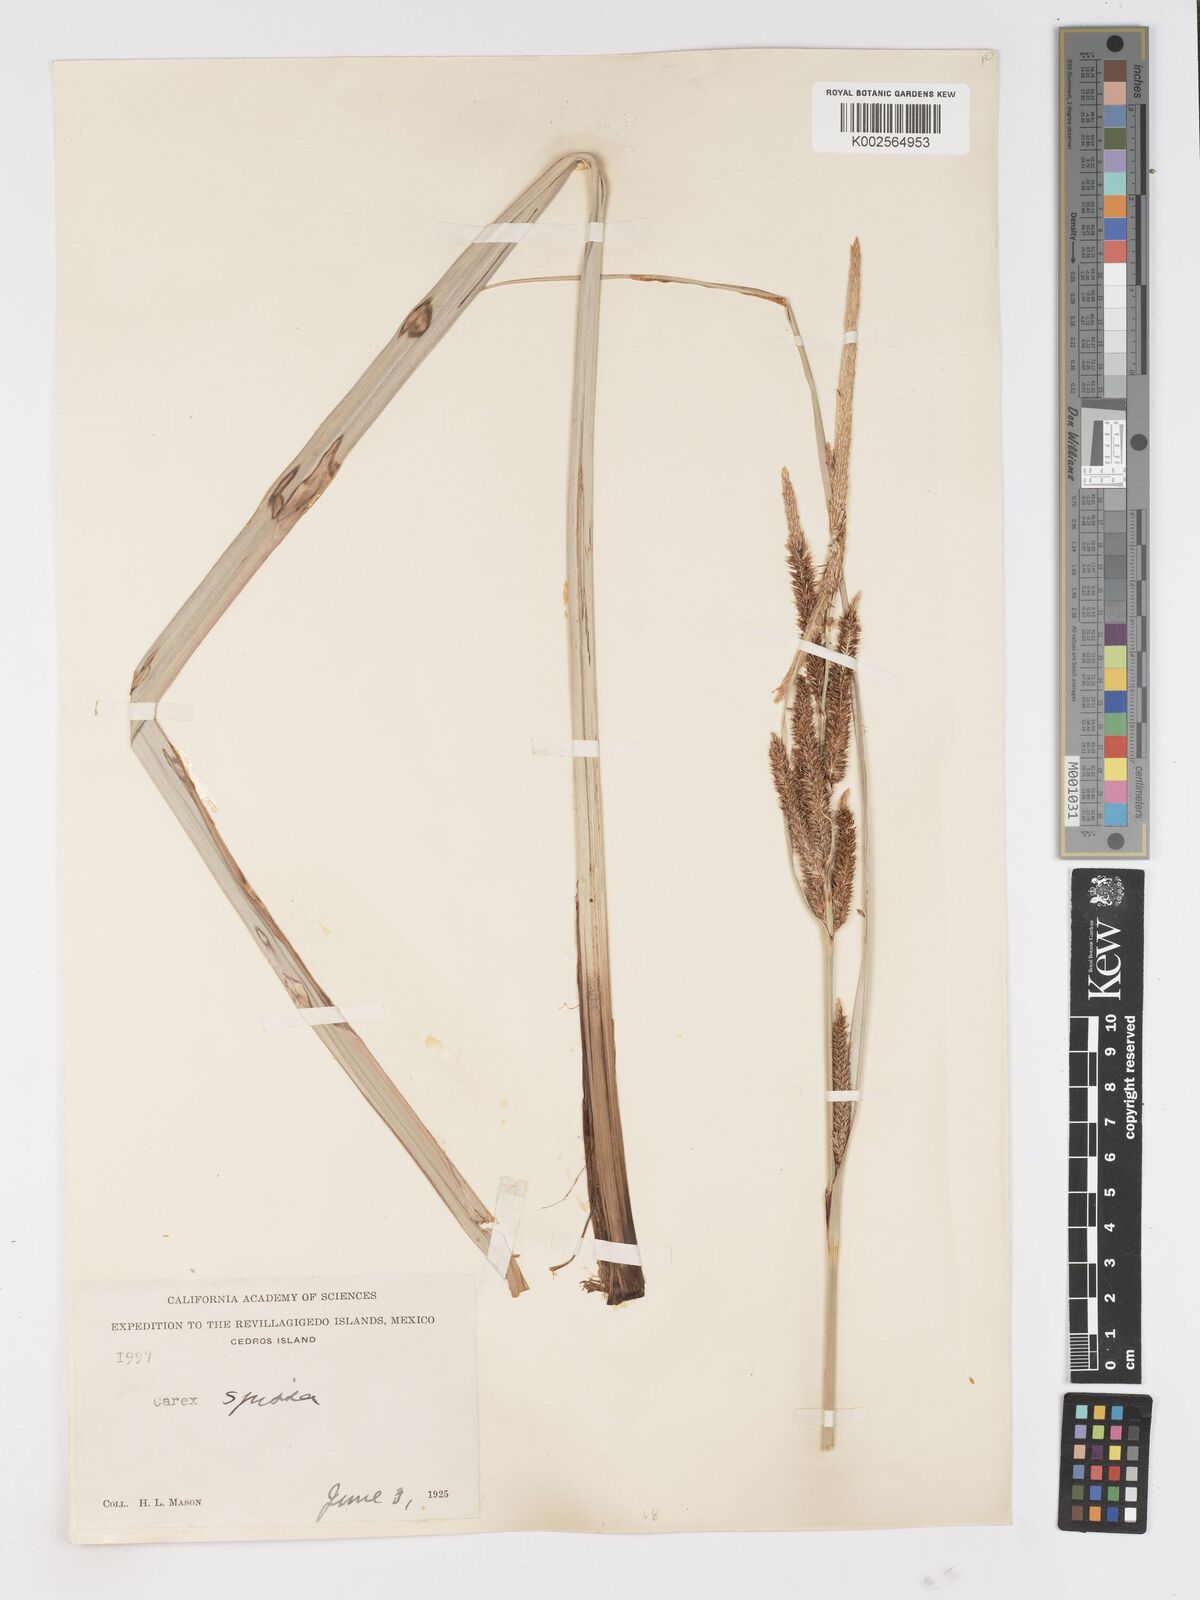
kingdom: Plantae
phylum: Tracheophyta
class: Liliopsida
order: Poales
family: Cyperaceae
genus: Carex
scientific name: Carex spissa
